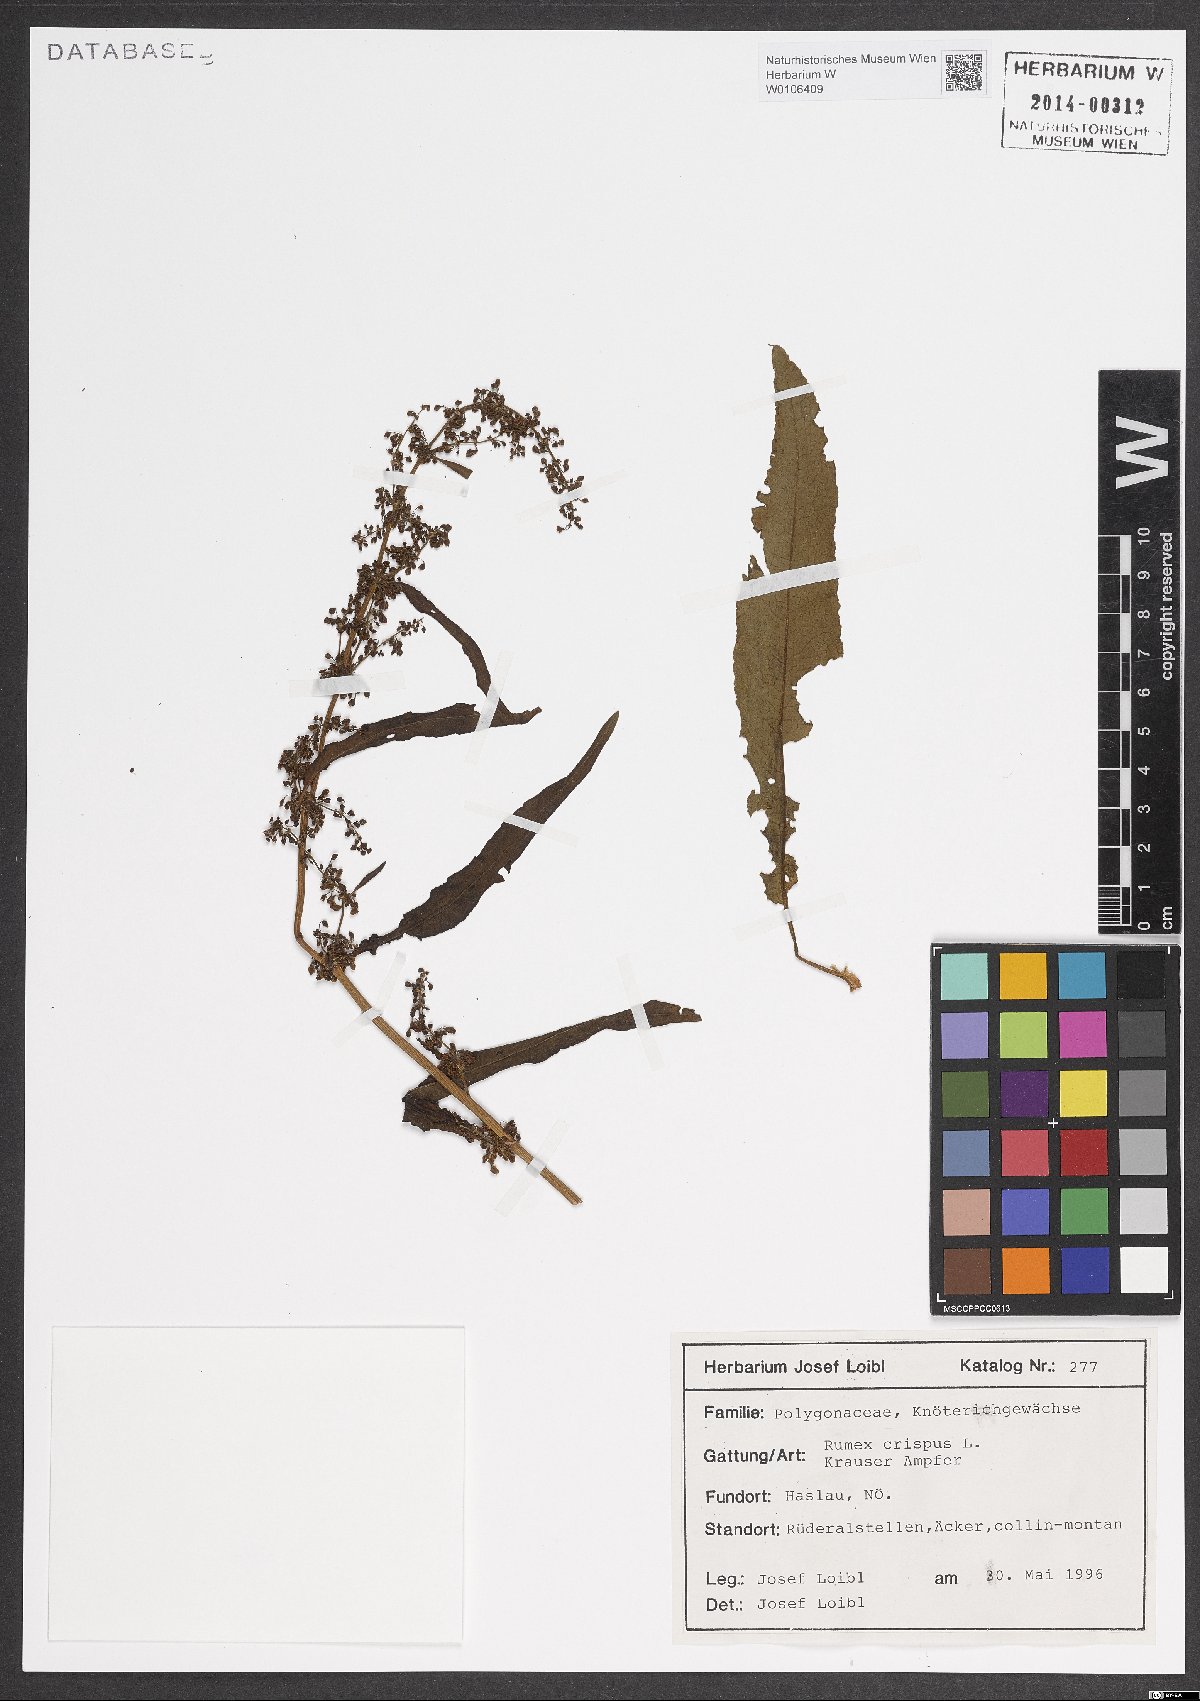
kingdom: Plantae
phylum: Tracheophyta
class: Magnoliopsida
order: Caryophyllales
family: Polygonaceae
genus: Rumex
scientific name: Rumex crispus
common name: Curled dock
